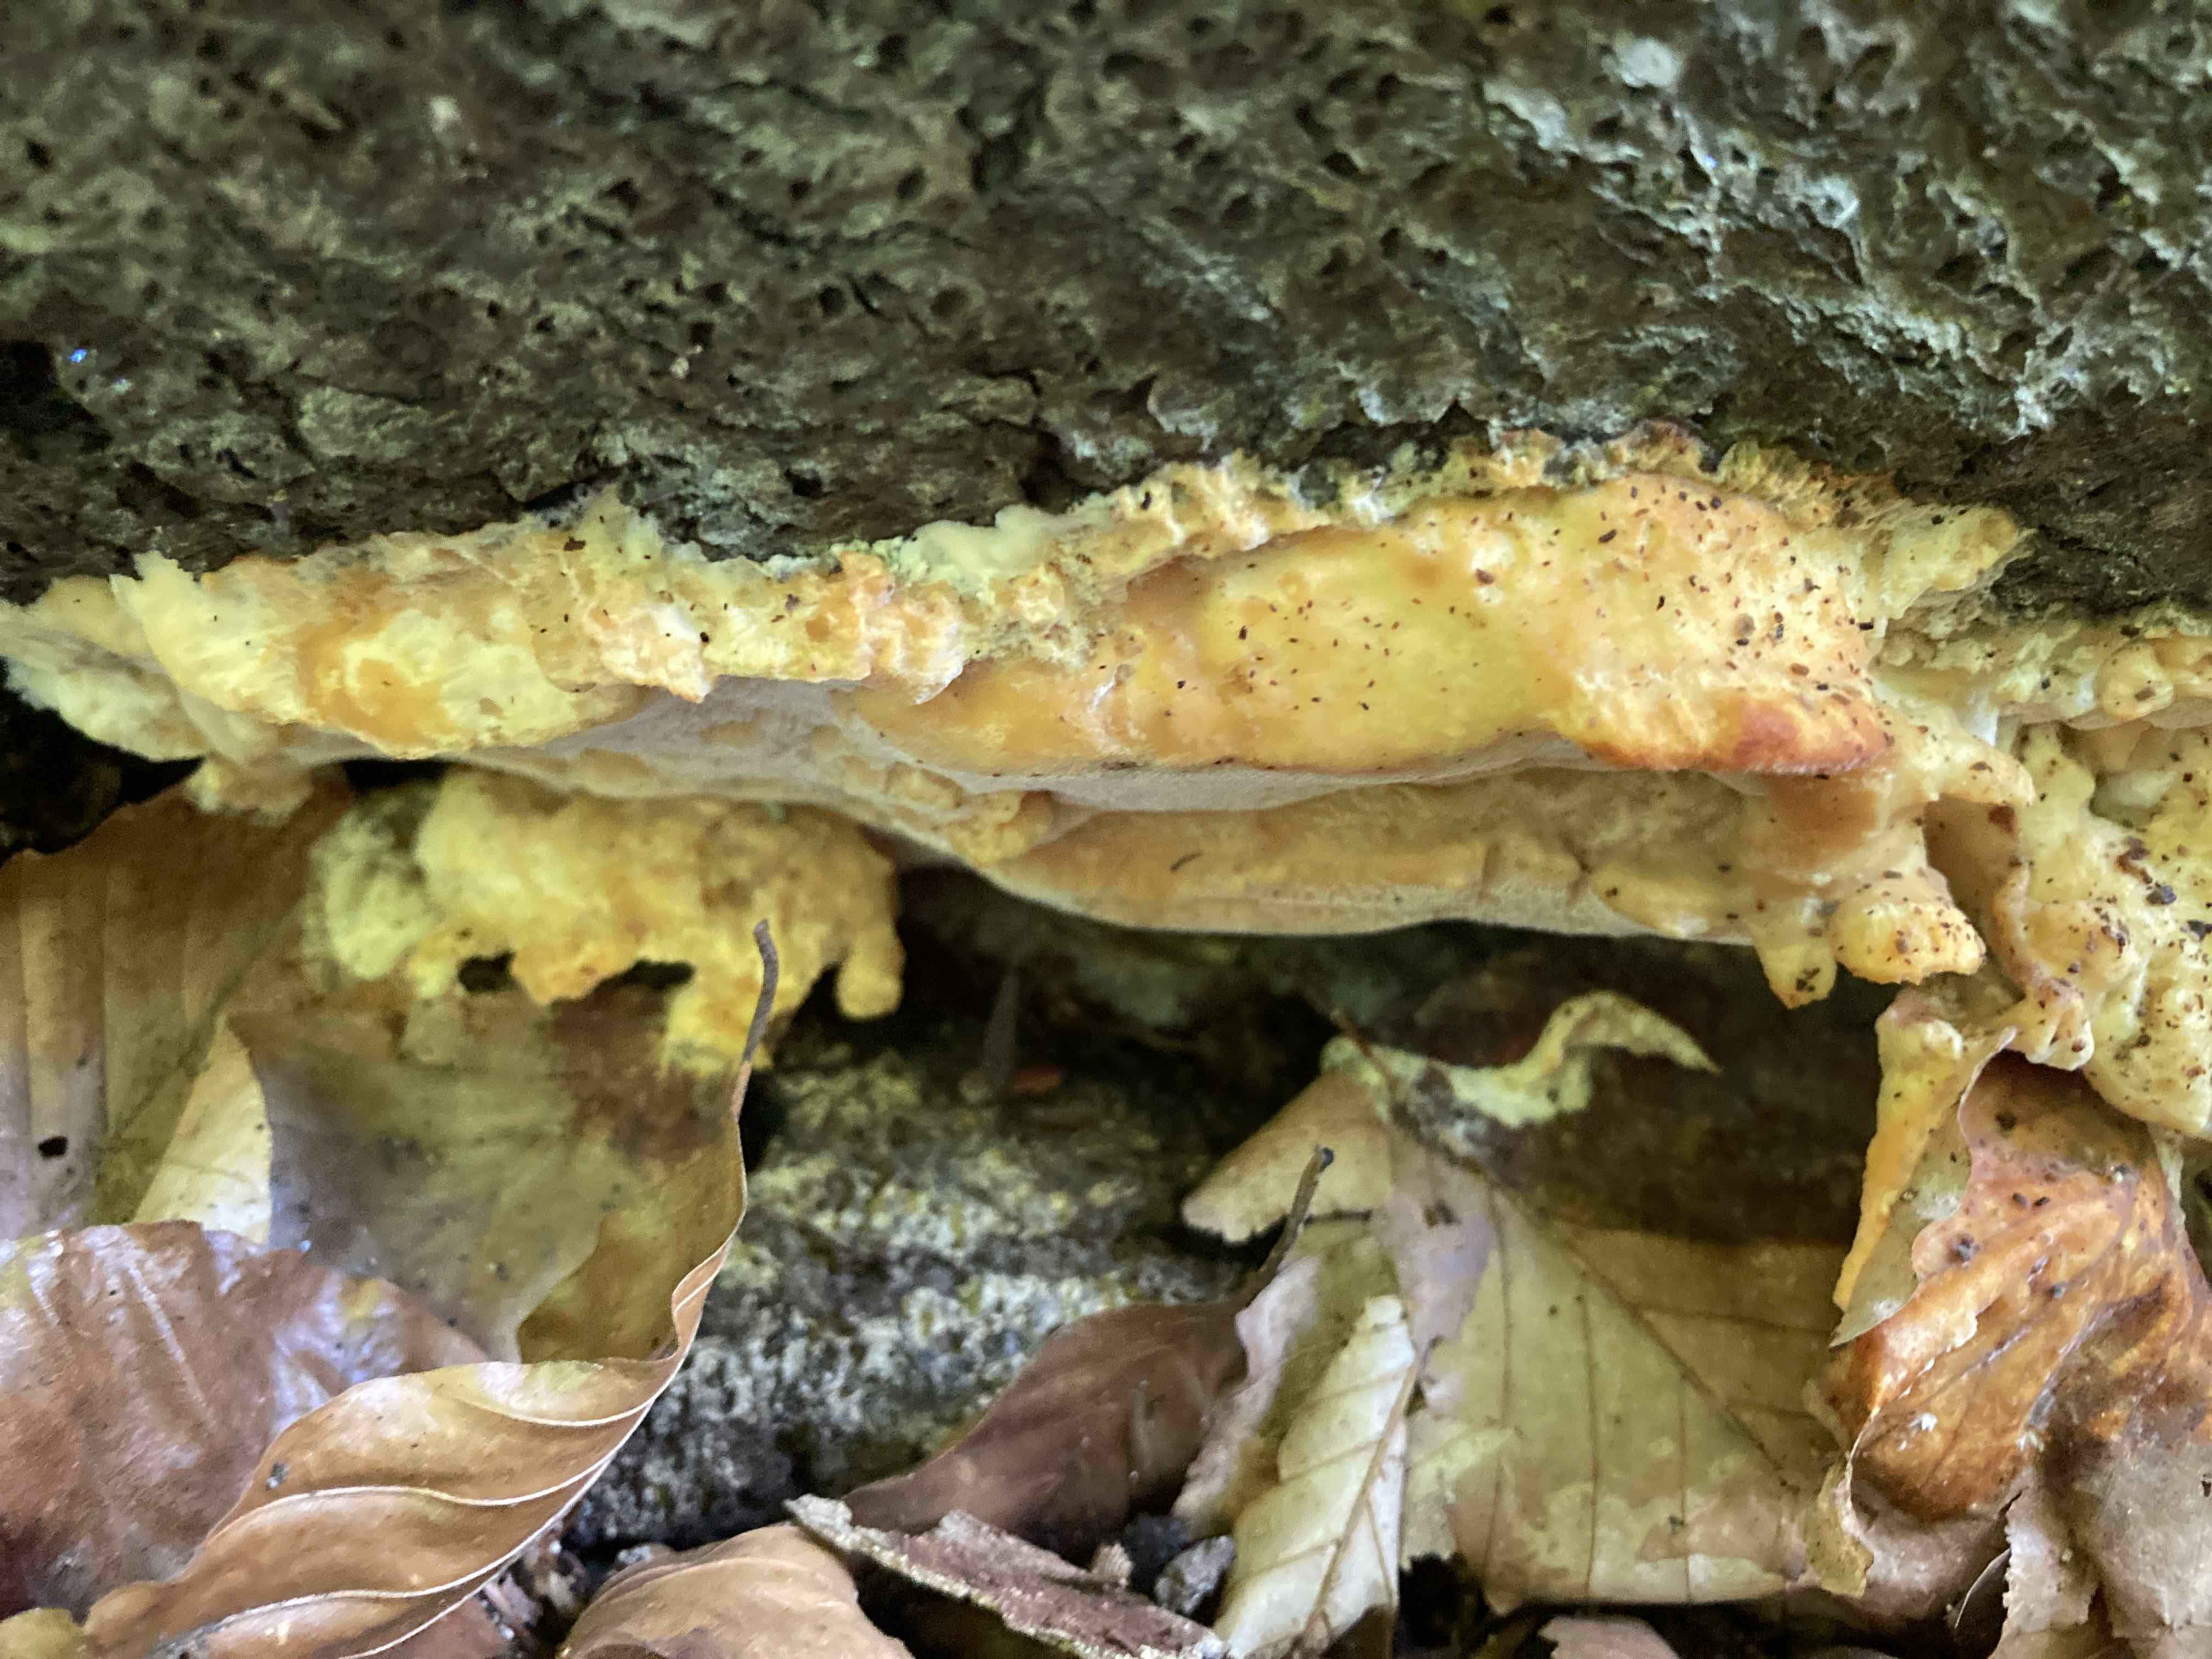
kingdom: Fungi
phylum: Basidiomycota
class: Agaricomycetes
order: Polyporales
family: Steccherinaceae
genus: Antrodiella
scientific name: Antrodiella mentschulensis
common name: abrikosporesvamp
